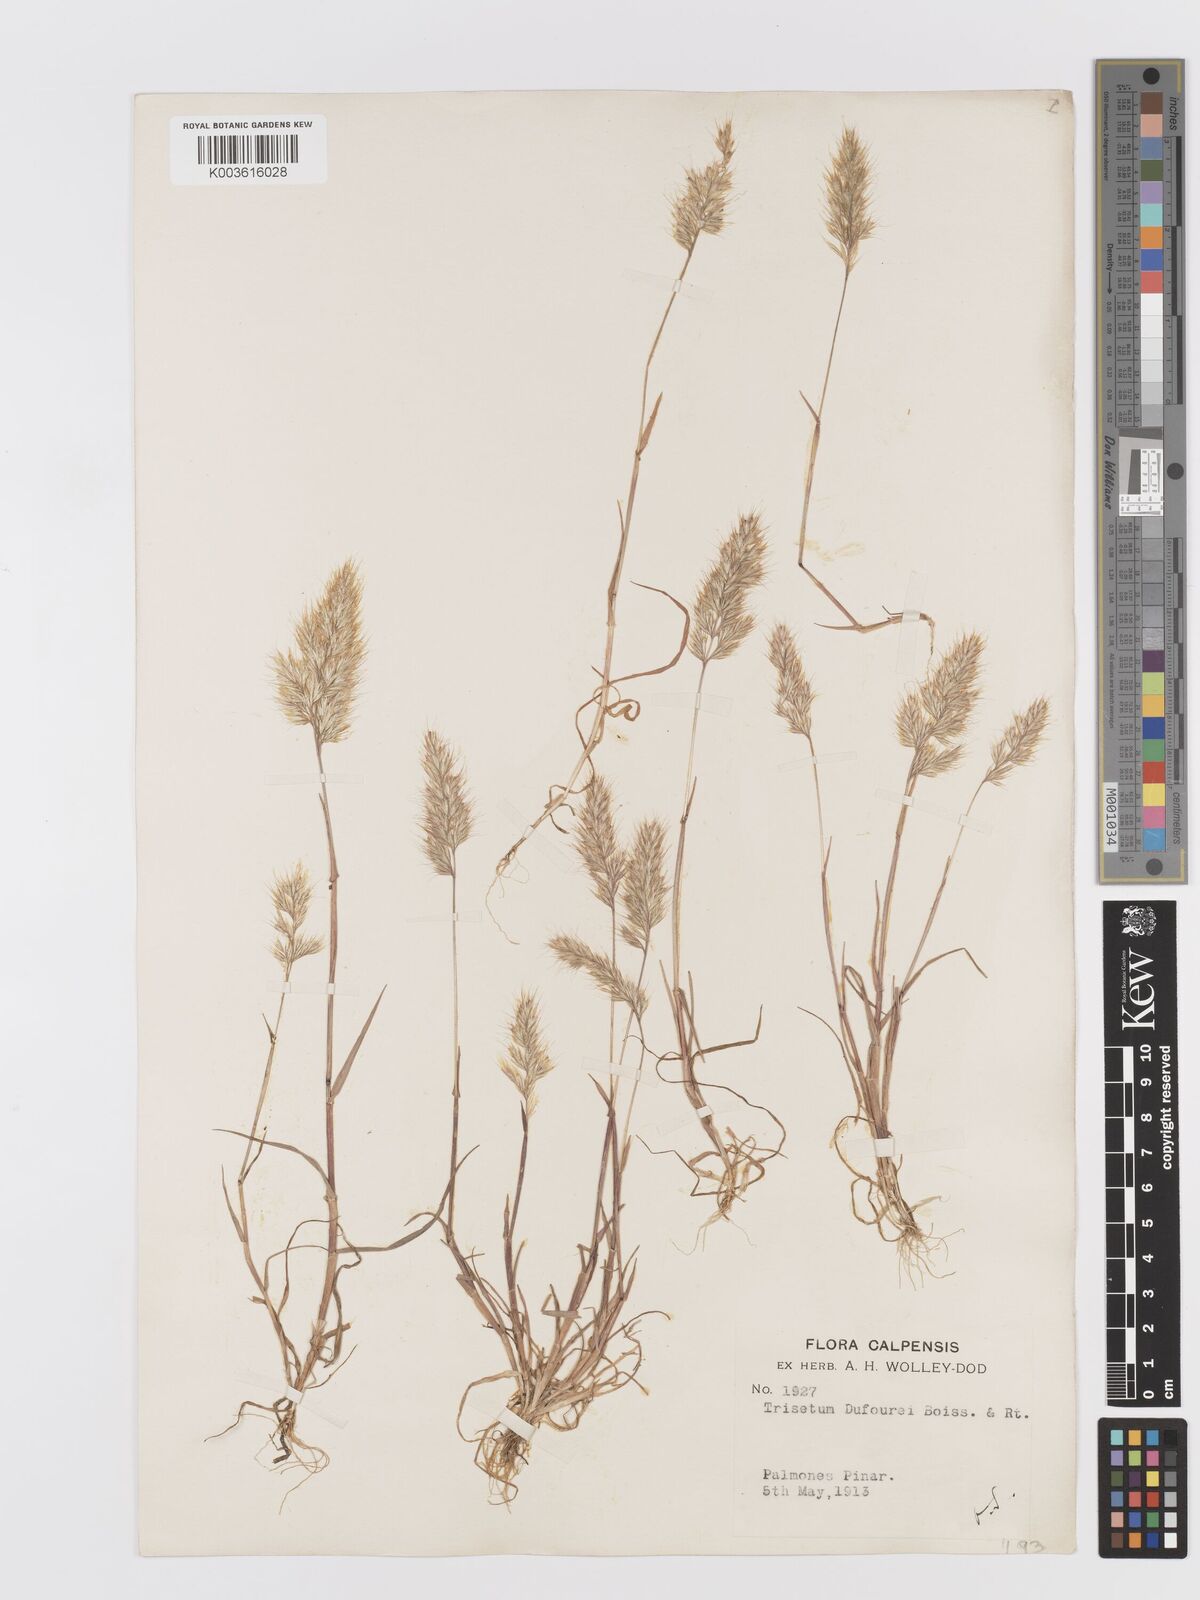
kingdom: Plantae
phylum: Tracheophyta
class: Liliopsida
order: Poales
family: Poaceae
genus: Trisetaria
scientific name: Trisetaria dufourei
